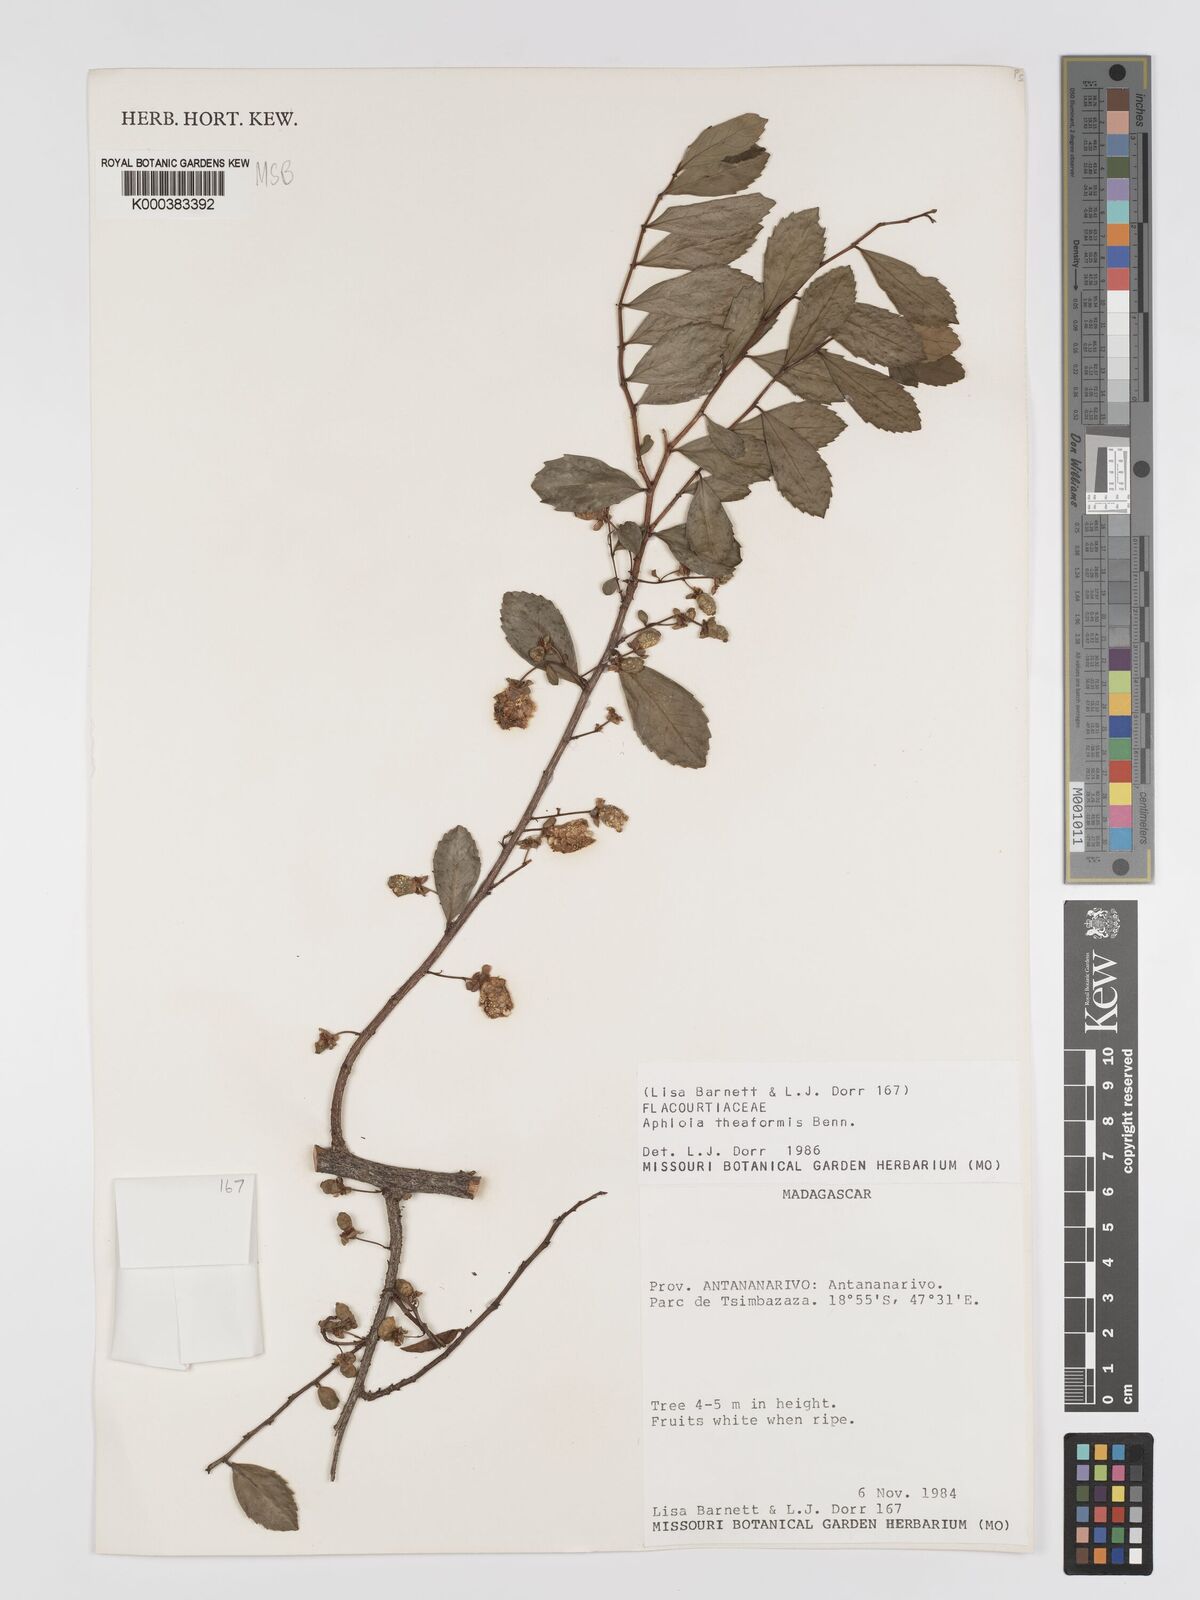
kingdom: Plantae
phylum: Tracheophyta
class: Magnoliopsida
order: Crossosomatales
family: Aphloiaceae
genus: Aphloia
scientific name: Aphloia theiformis
